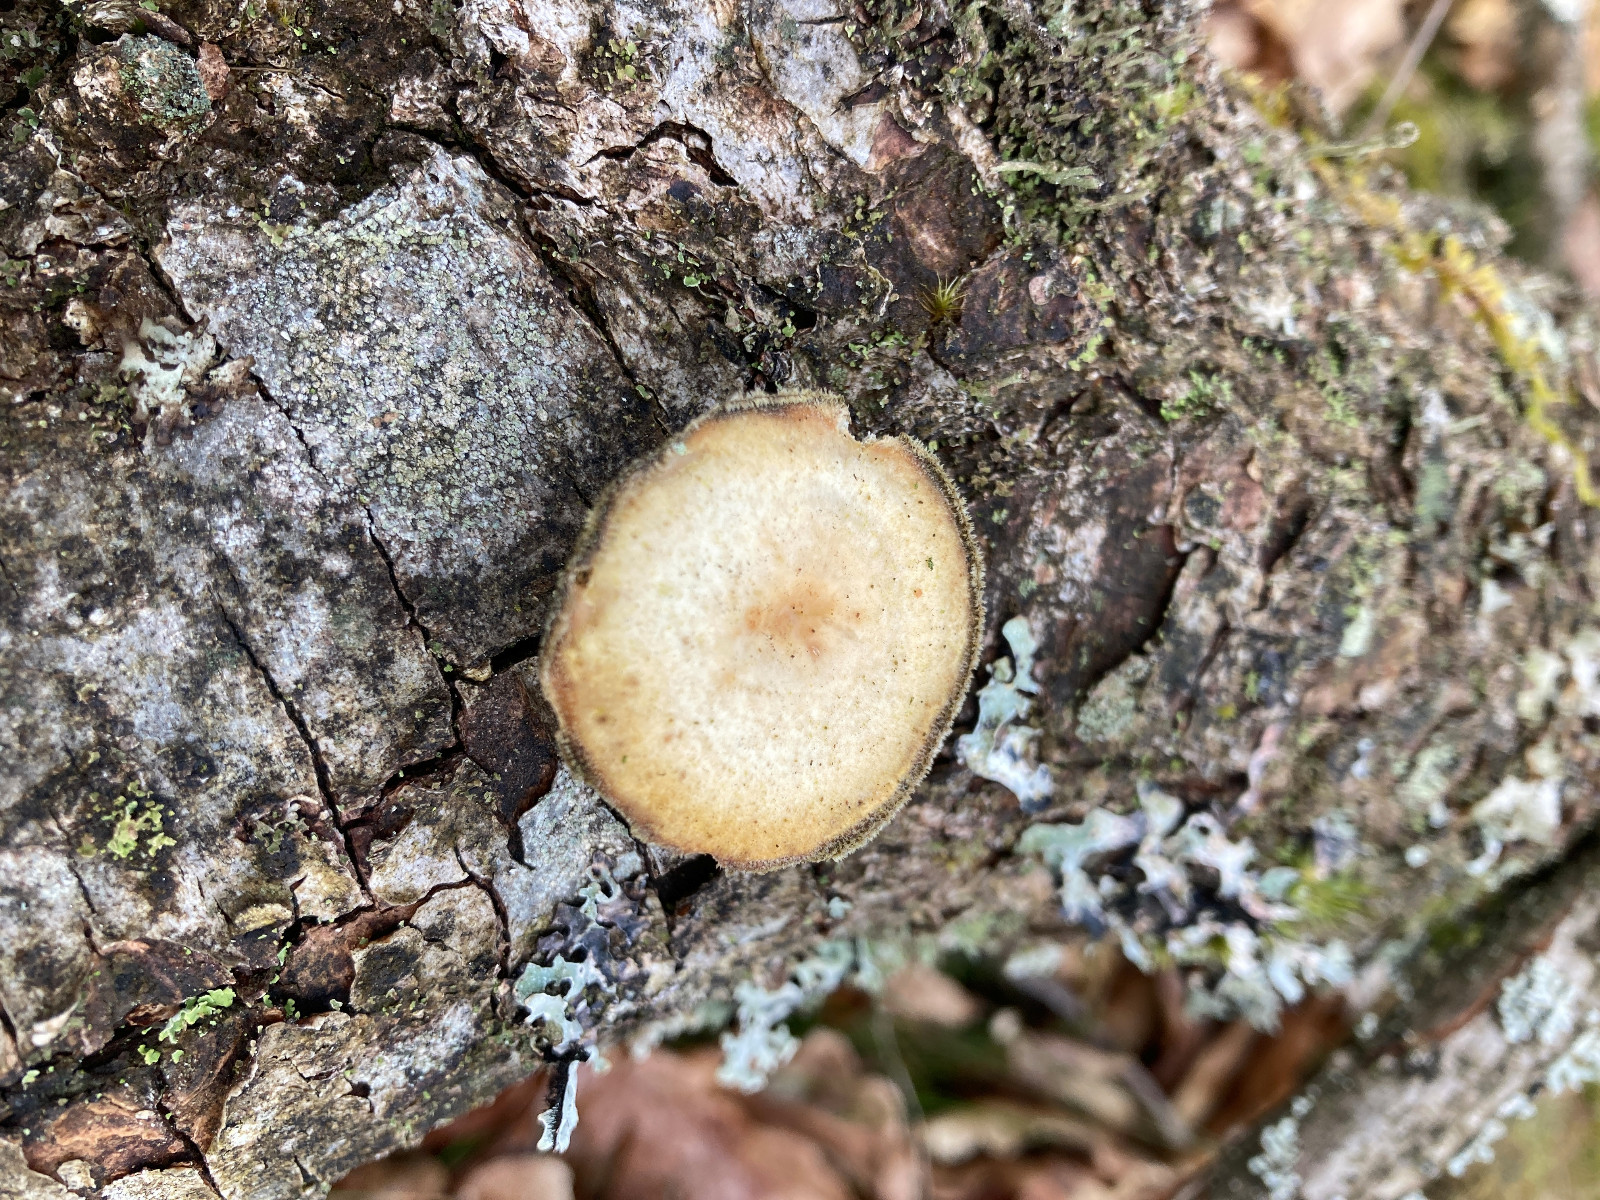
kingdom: Fungi
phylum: Basidiomycota
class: Agaricomycetes
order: Polyporales
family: Polyporaceae
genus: Lentinus
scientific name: Lentinus brumalis
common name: vinter-stilkporesvamp
